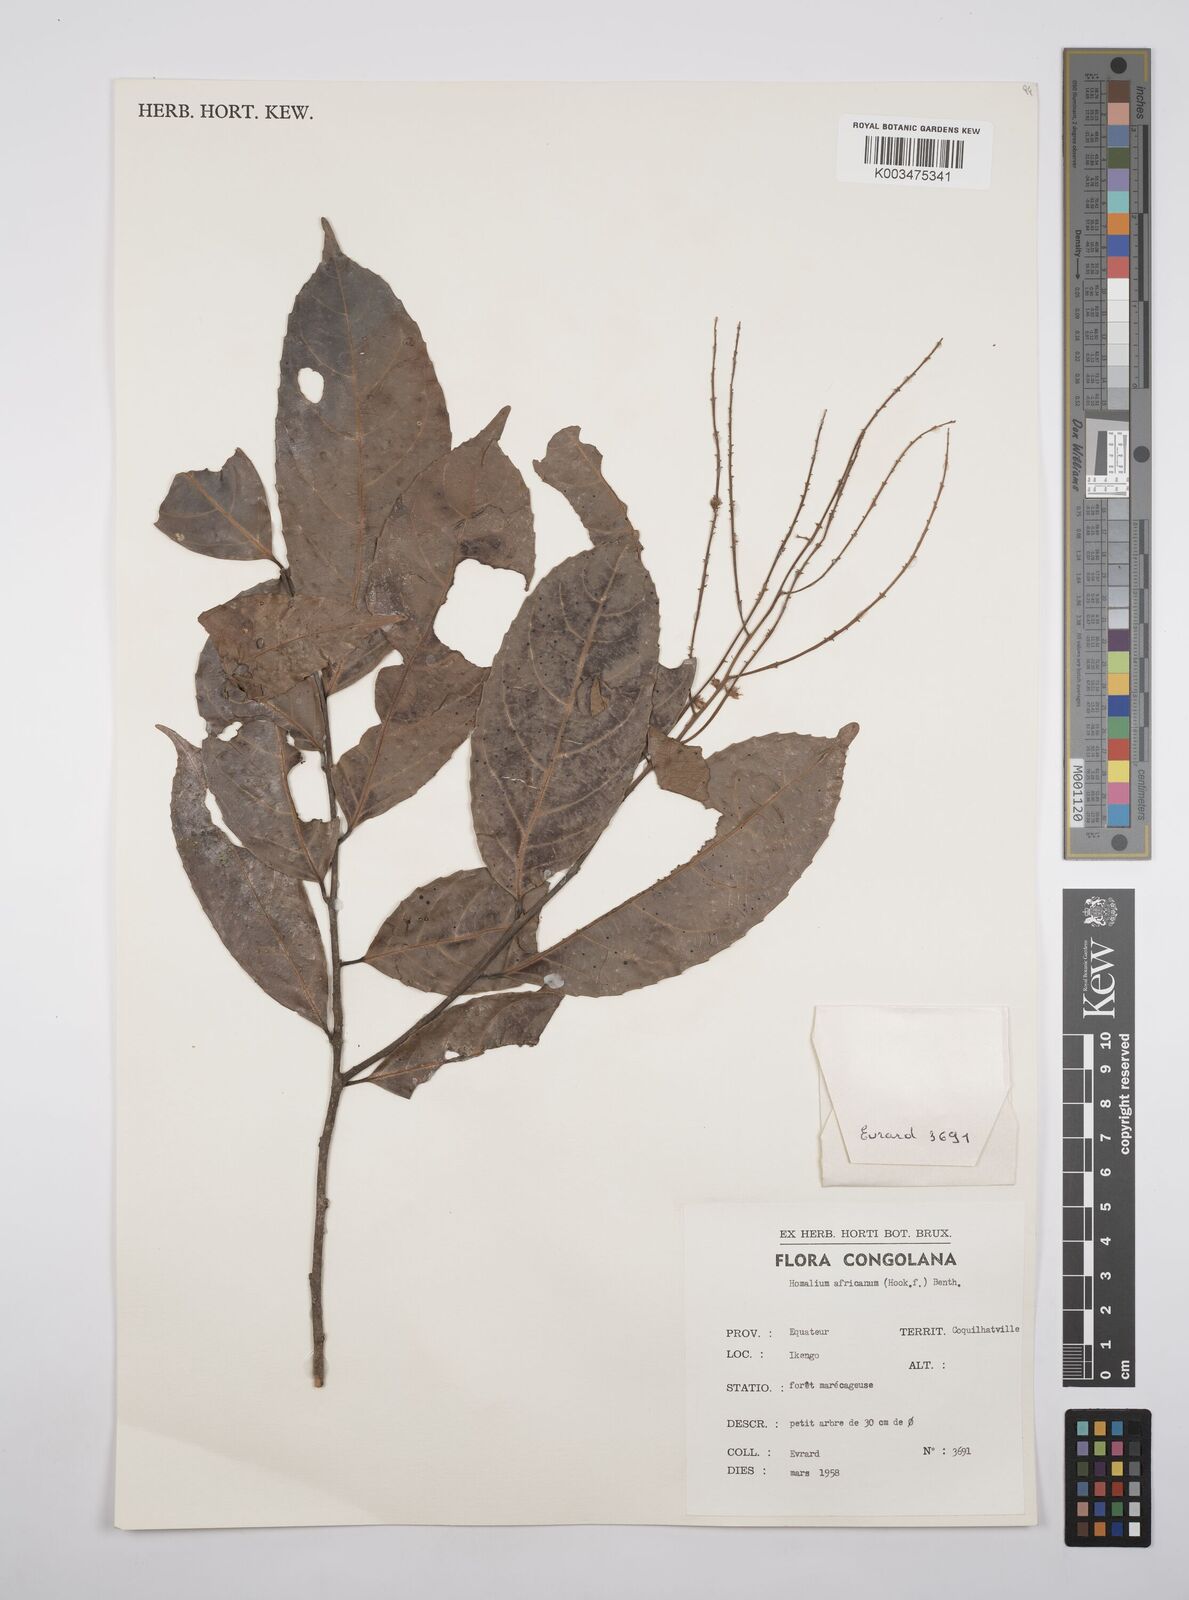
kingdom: Plantae
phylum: Tracheophyta
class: Magnoliopsida
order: Malpighiales
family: Salicaceae
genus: Homalium
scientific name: Homalium africanum
